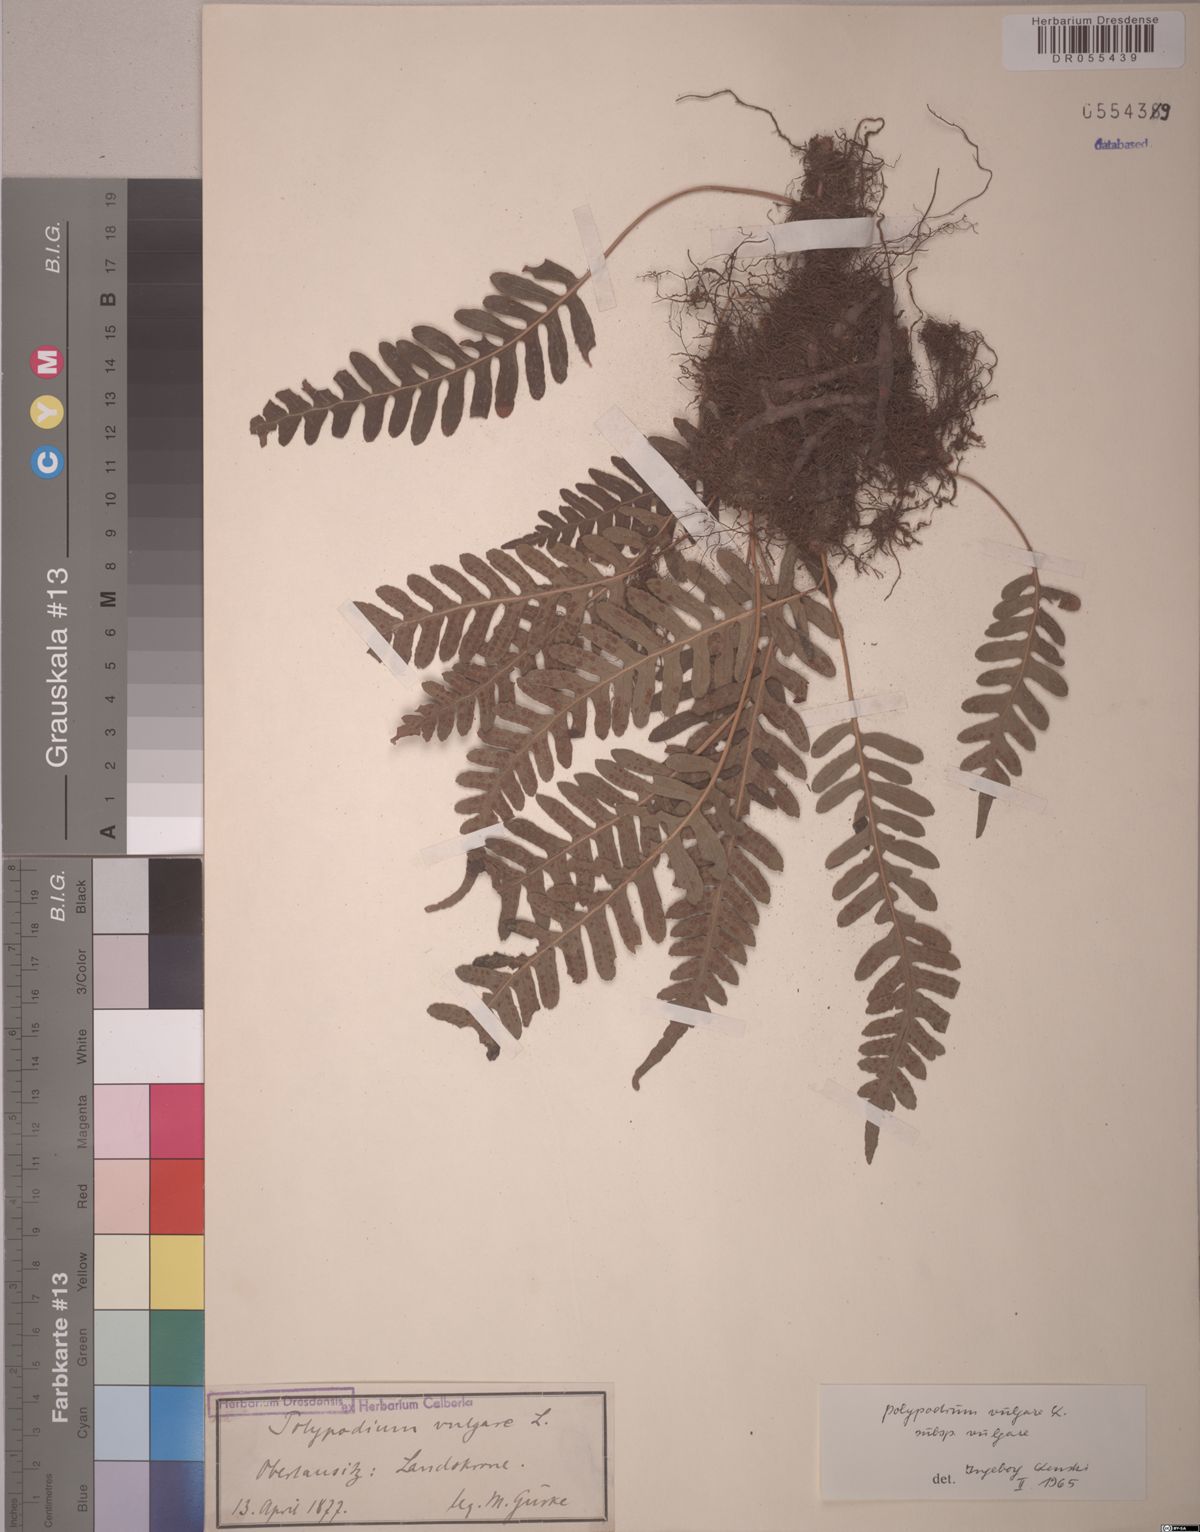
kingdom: Plantae
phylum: Tracheophyta
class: Polypodiopsida
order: Polypodiales
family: Polypodiaceae
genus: Polypodium
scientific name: Polypodium vulgare
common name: Common polypody
